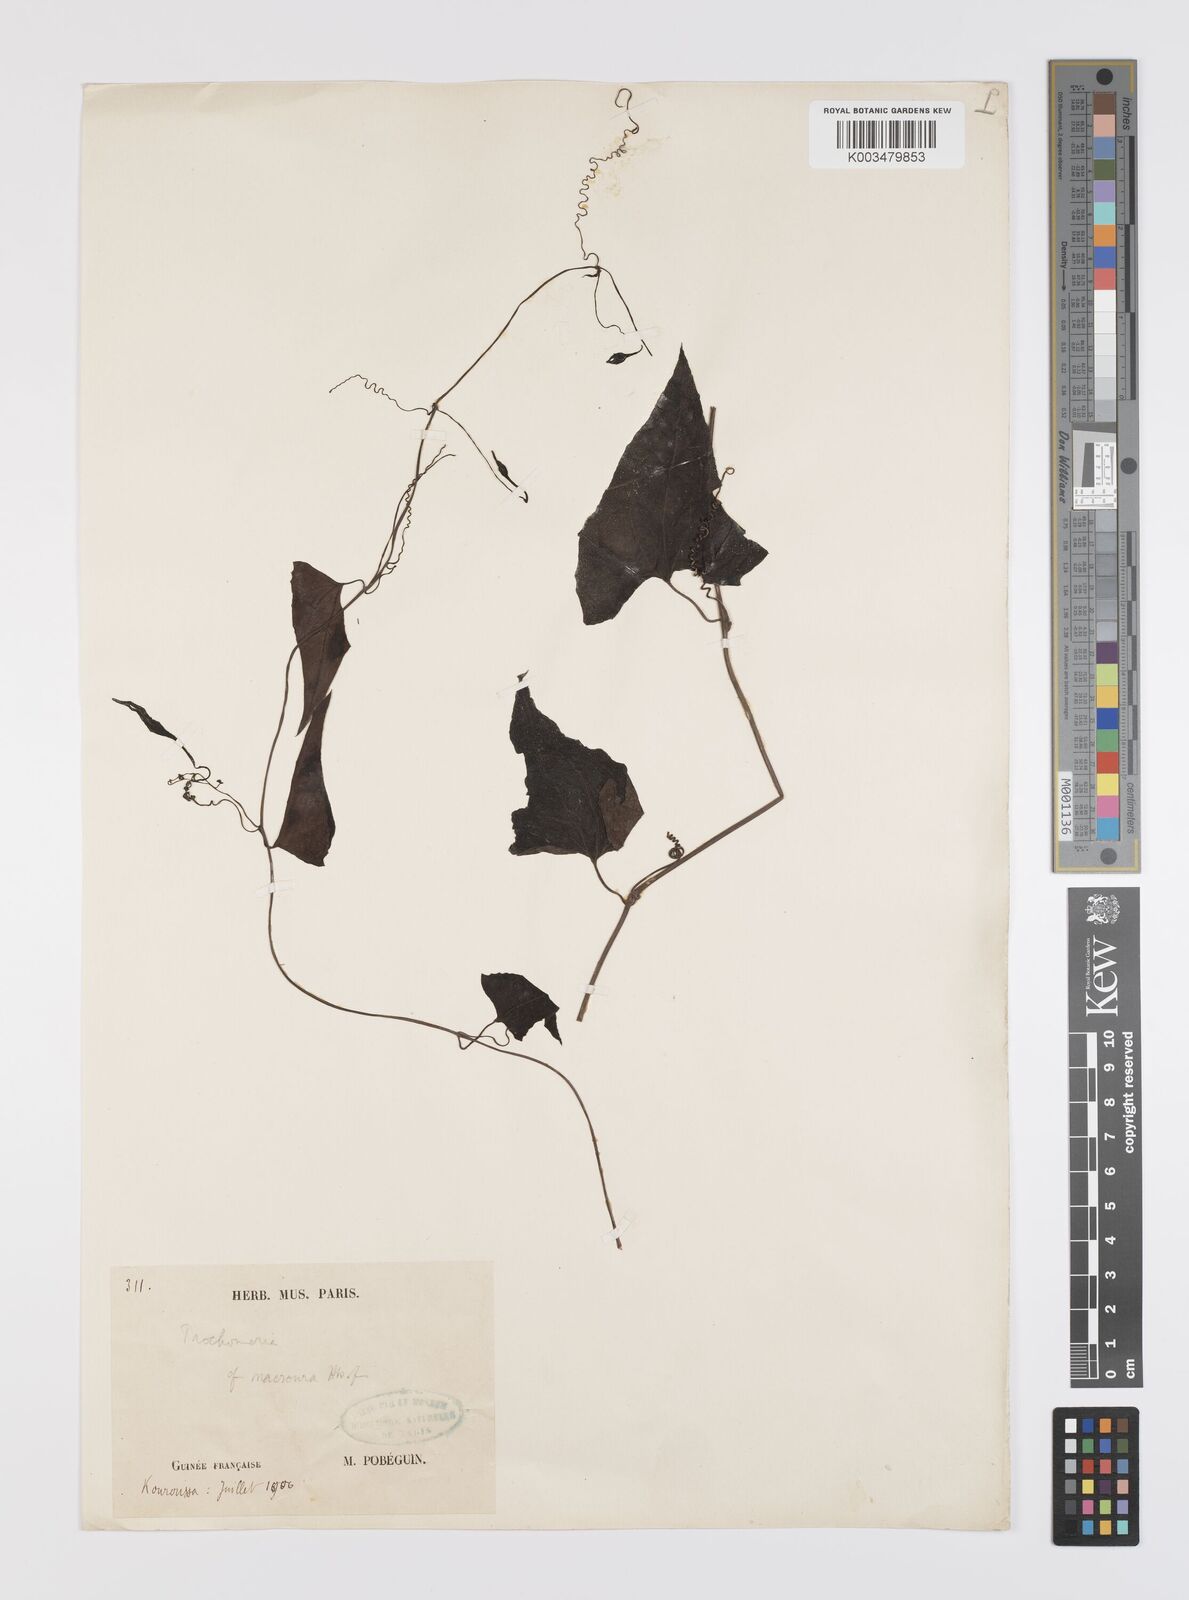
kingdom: Plantae
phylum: Tracheophyta
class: Magnoliopsida
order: Cucurbitales
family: Cucurbitaceae
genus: Trochomeria
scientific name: Trochomeria macrocarpa
